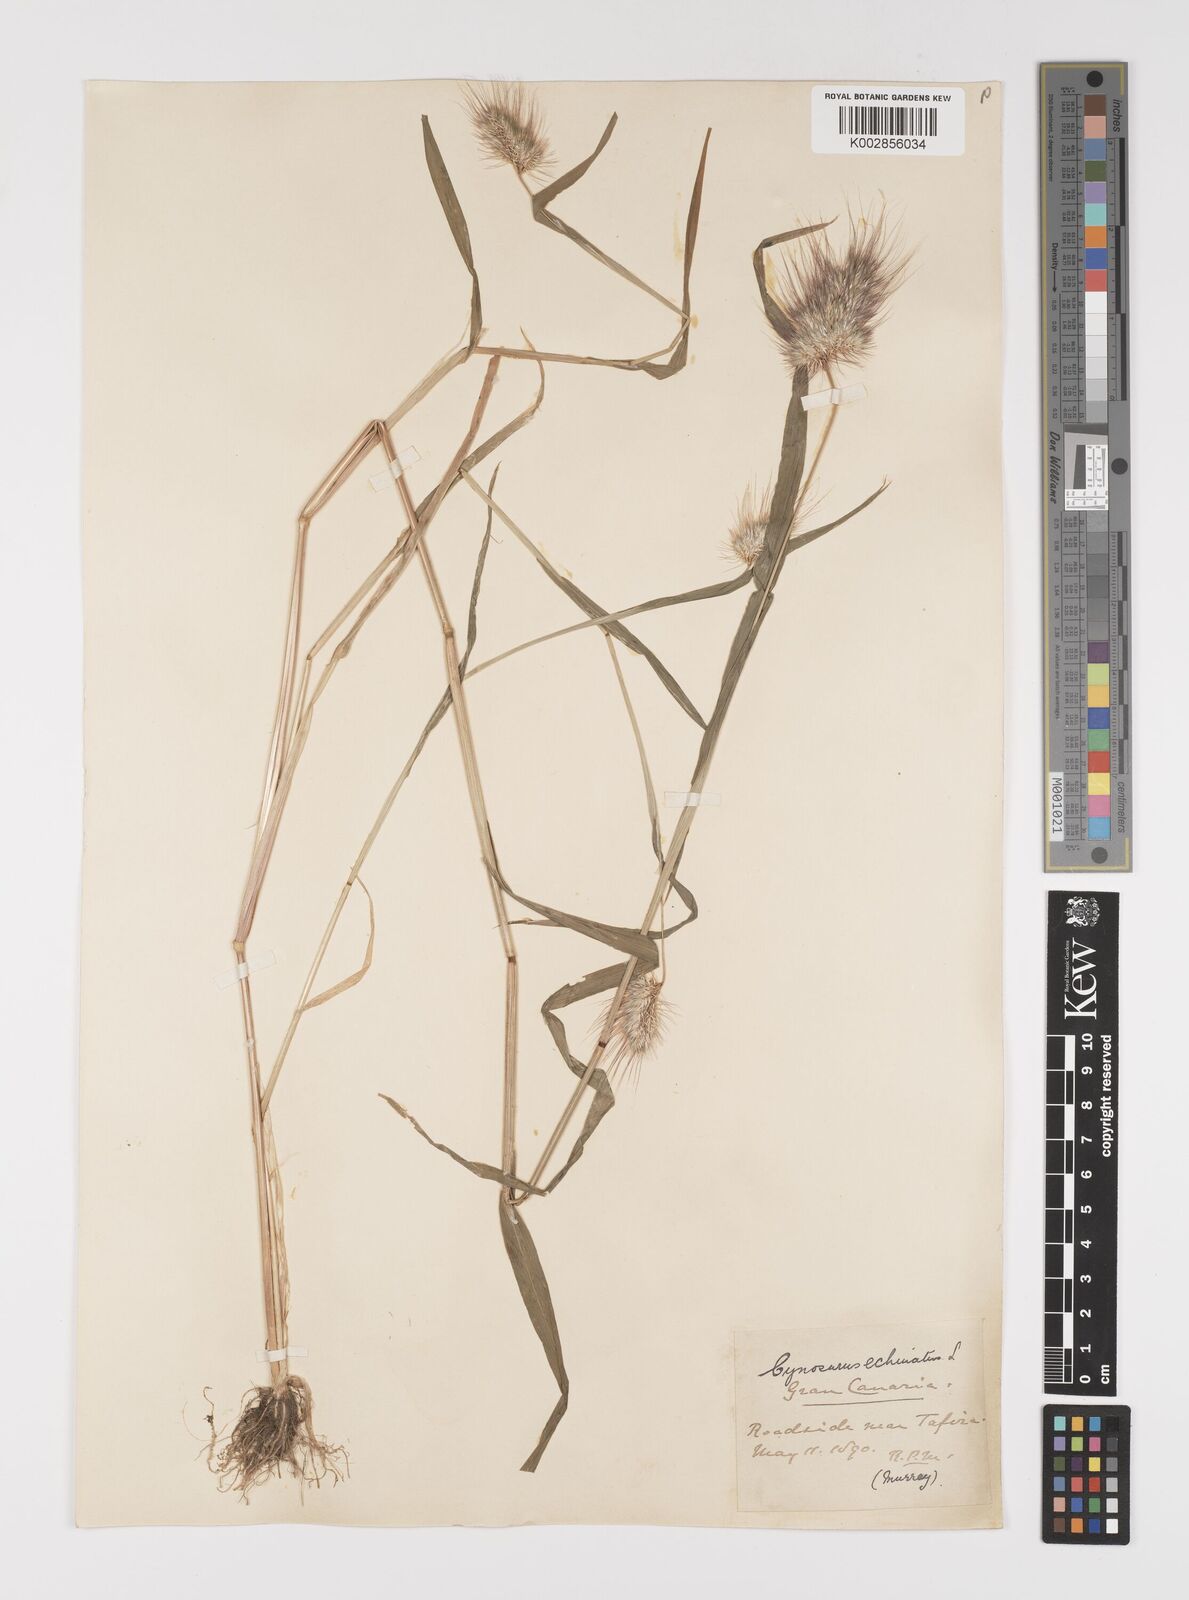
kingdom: Plantae
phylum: Tracheophyta
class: Liliopsida
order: Poales
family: Poaceae
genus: Cynosurus
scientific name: Cynosurus echinatus
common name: Rough dog's-tail
